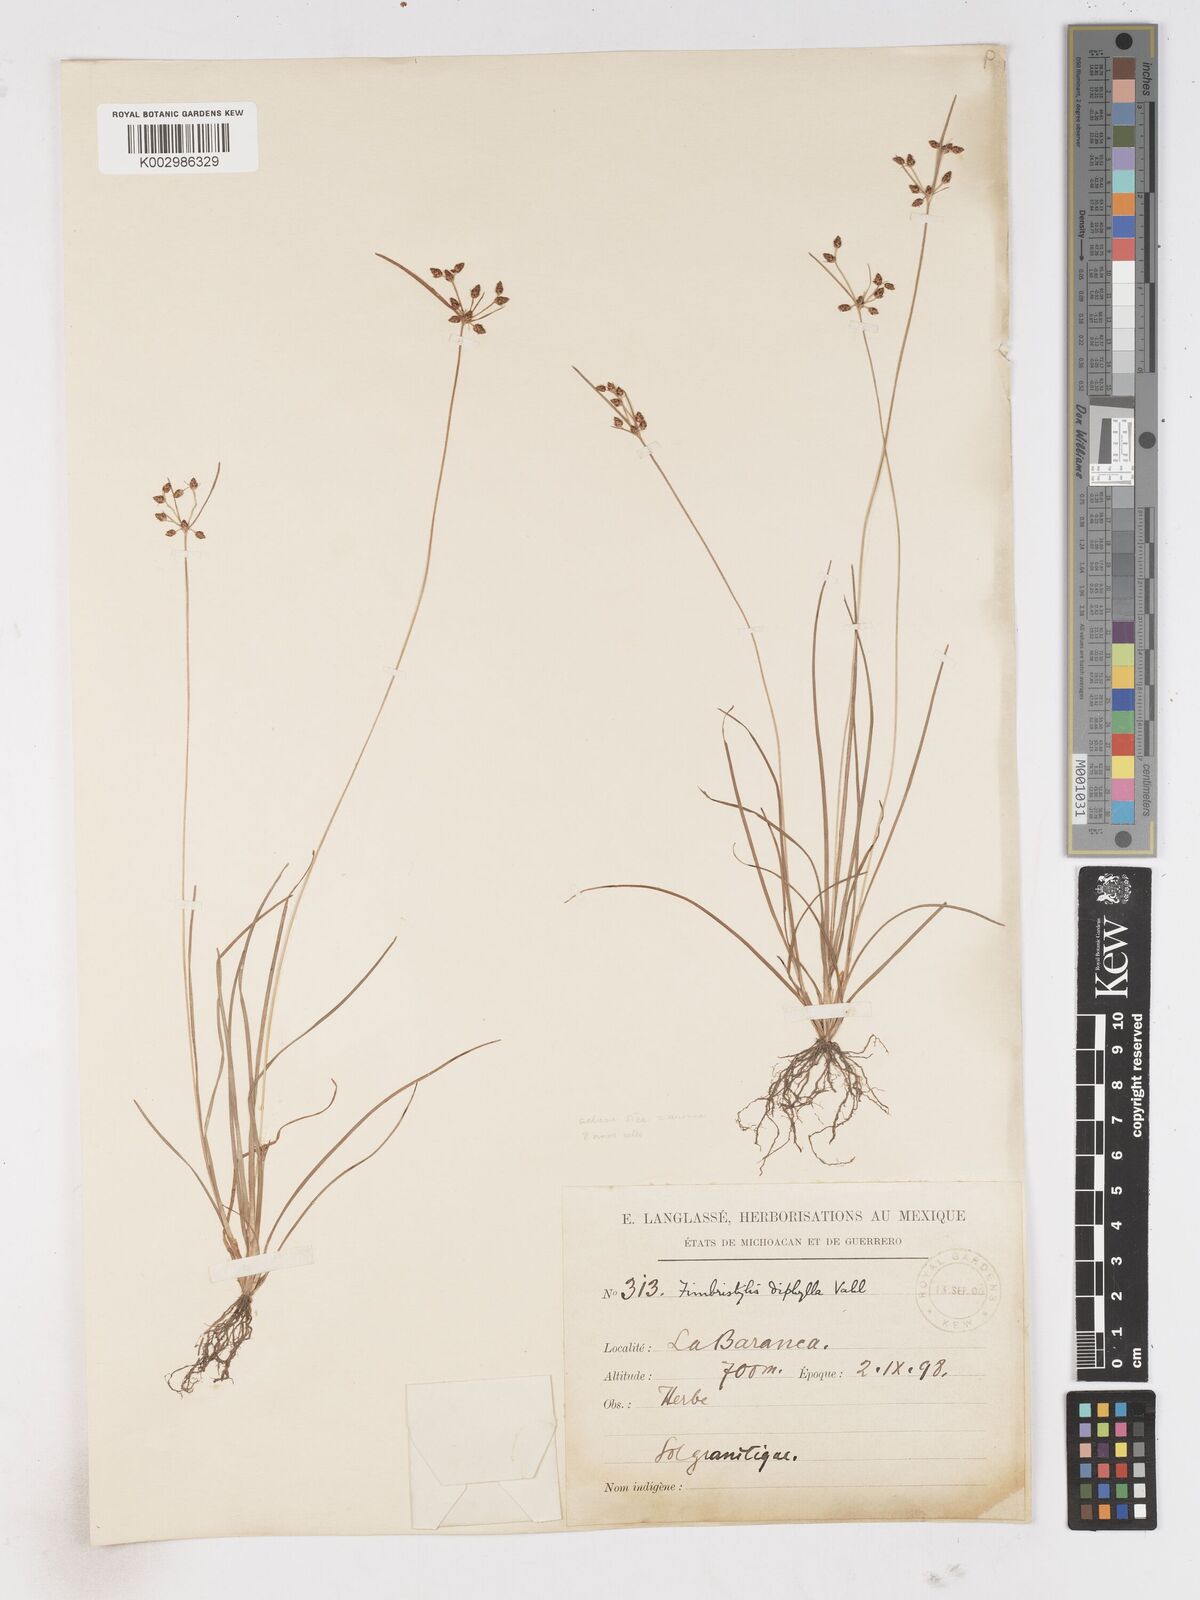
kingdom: Plantae
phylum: Tracheophyta
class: Liliopsida
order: Poales
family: Cyperaceae
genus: Fimbristylis
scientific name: Fimbristylis dichotoma
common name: Forked fimbry
